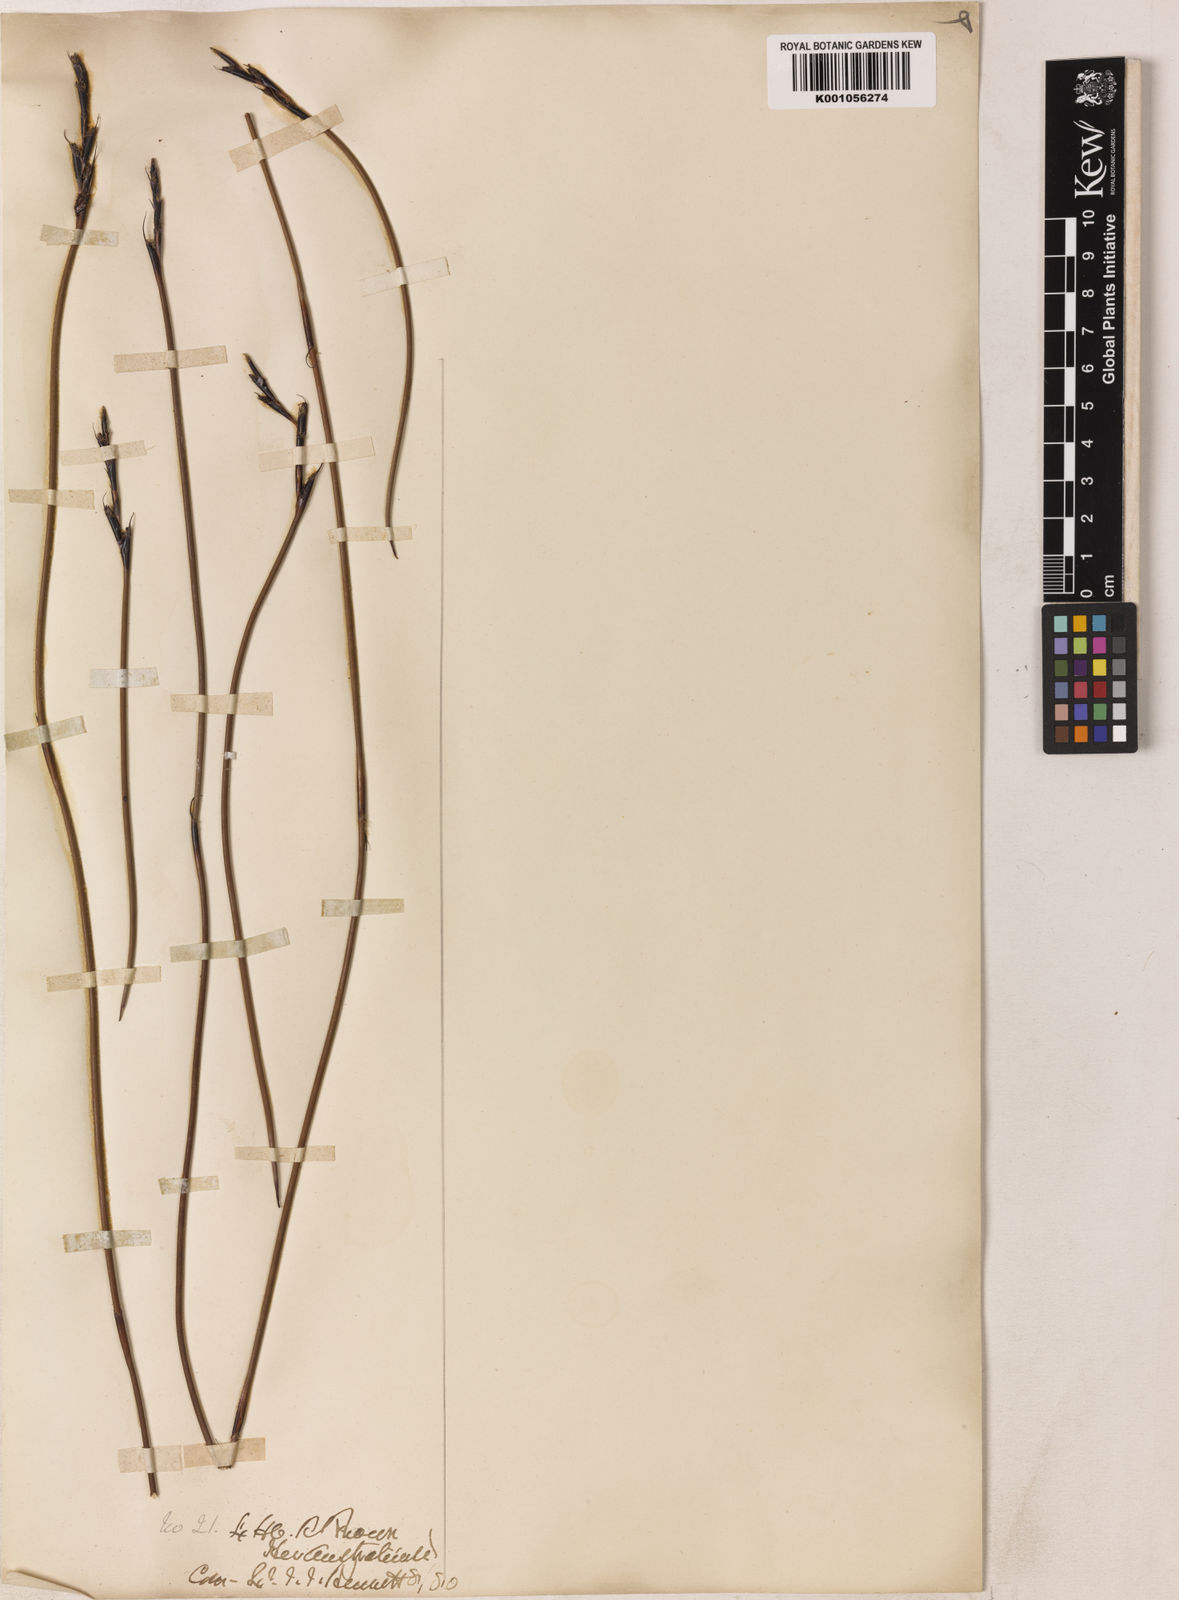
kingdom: Plantae
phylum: Tracheophyta
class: Liliopsida
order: Poales
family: Restionaceae
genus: Lyginia
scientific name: Lyginia barbata
